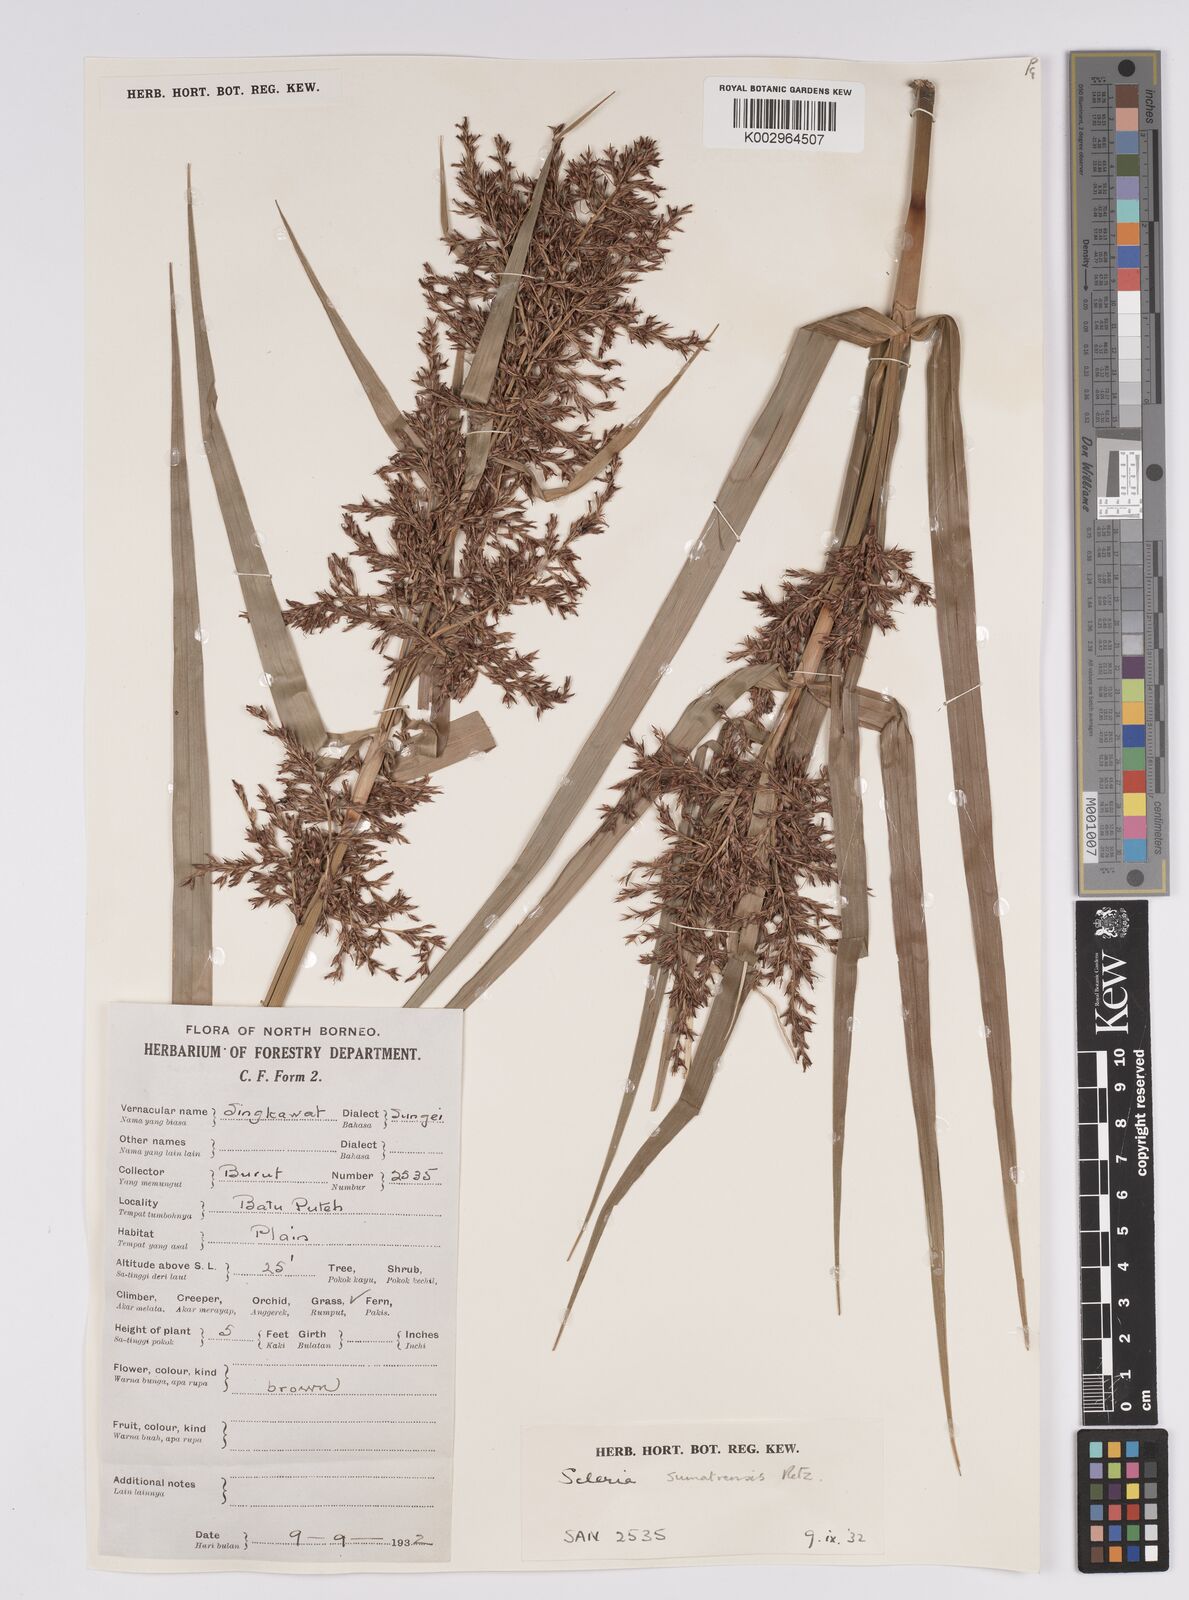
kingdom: Plantae
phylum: Tracheophyta
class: Liliopsida
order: Poales
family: Cyperaceae
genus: Scleria
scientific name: Scleria sumatrensis
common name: Sumatran scleria
